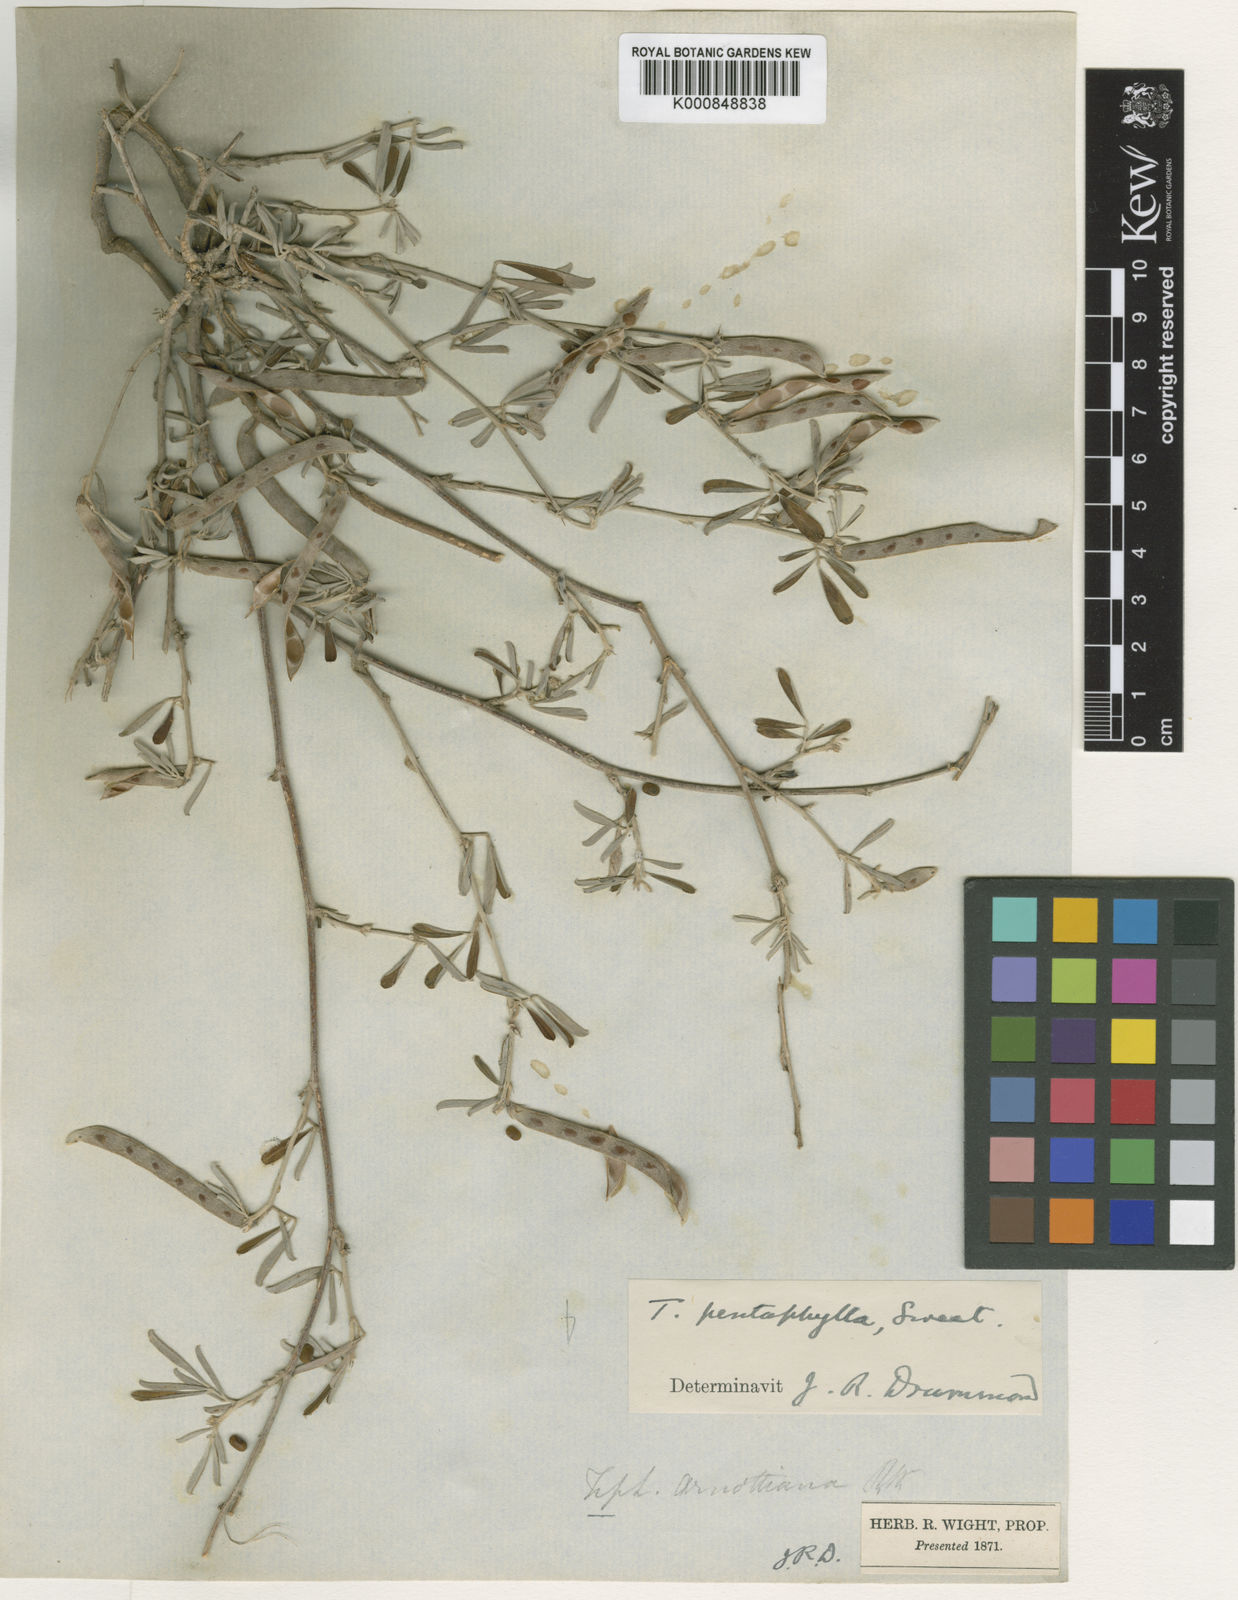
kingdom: Plantae
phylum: Tracheophyta
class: Magnoliopsida
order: Fabales
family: Fabaceae
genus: Tephrosia
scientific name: Tephrosia
